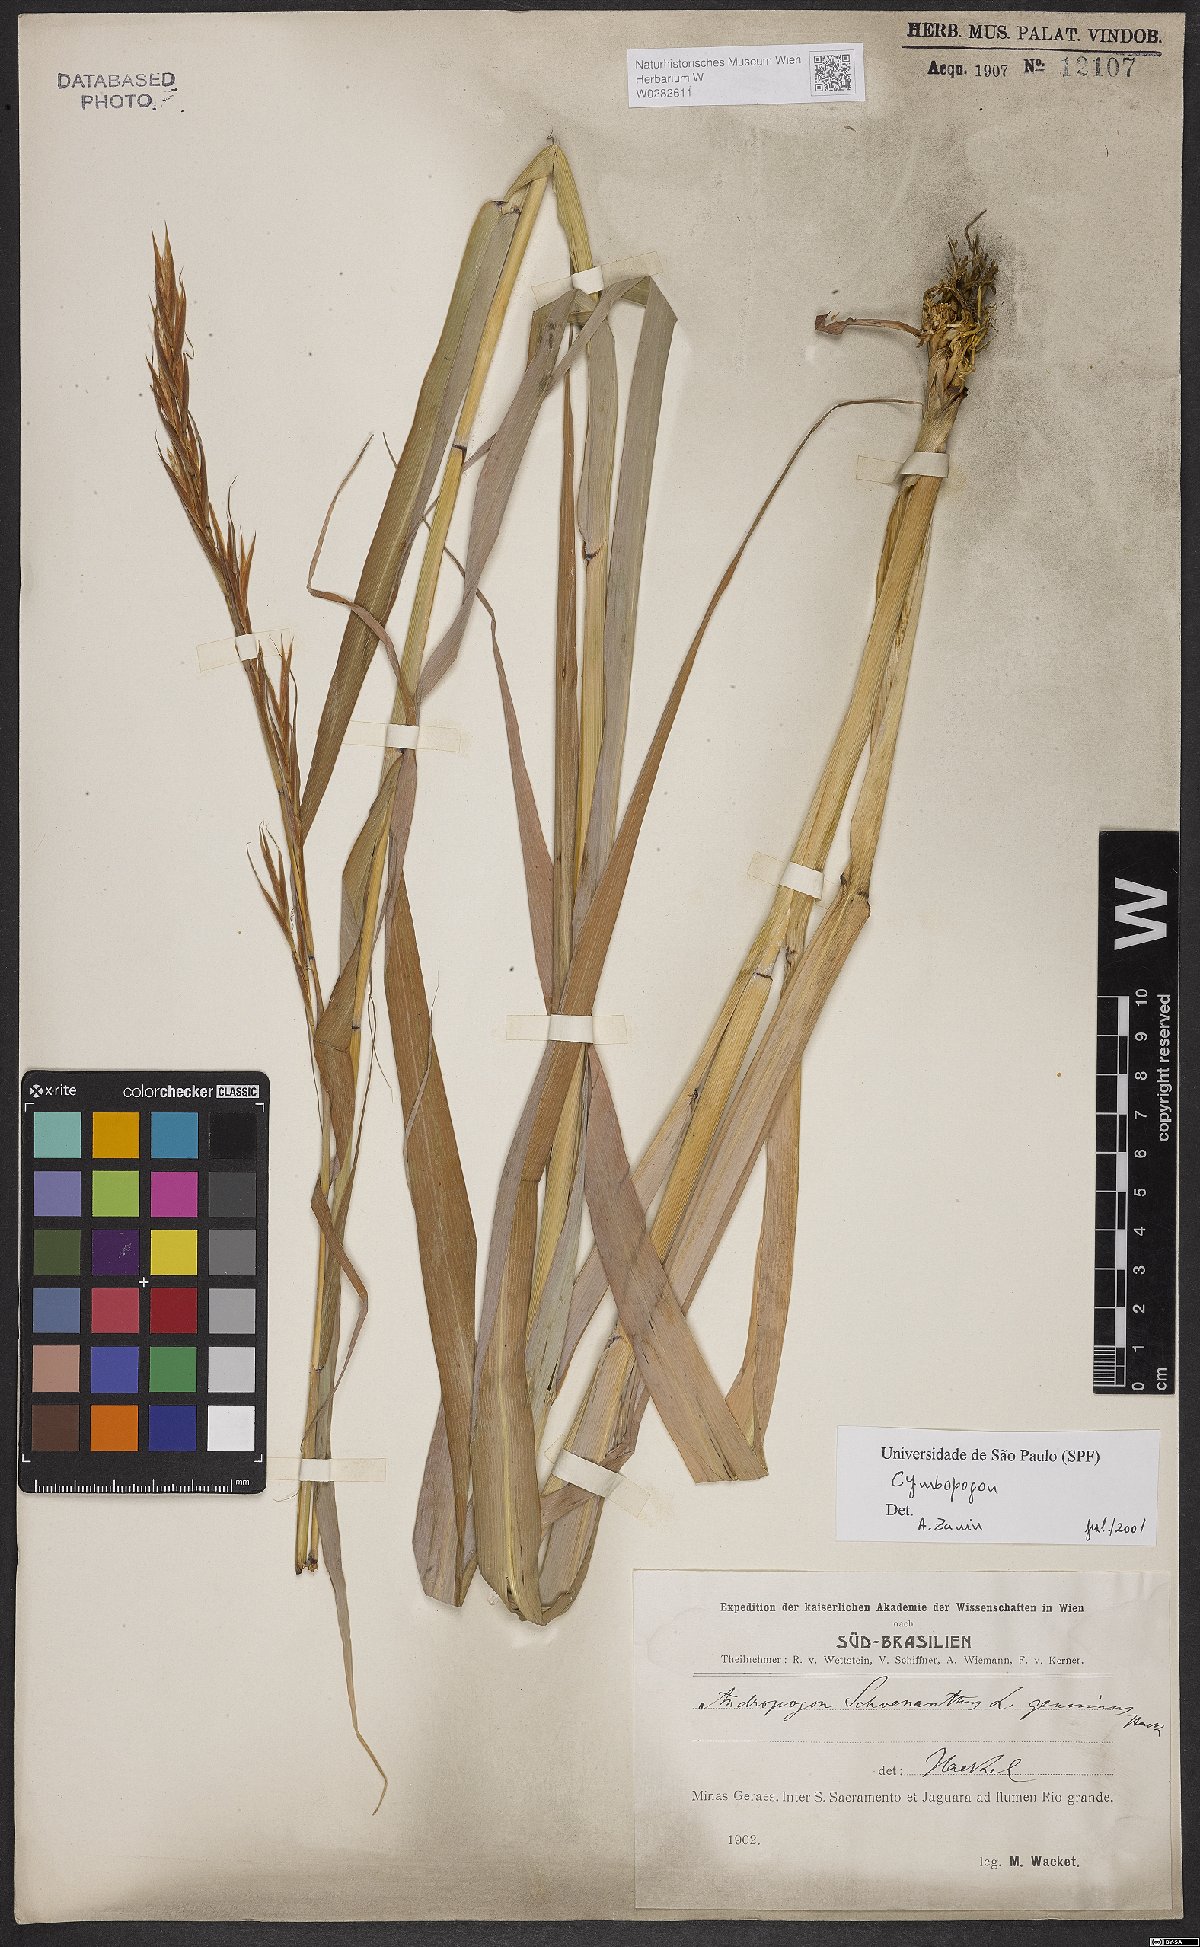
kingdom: Plantae
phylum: Tracheophyta
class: Liliopsida
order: Poales
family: Poaceae
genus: Cymbopogon
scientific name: Cymbopogon
